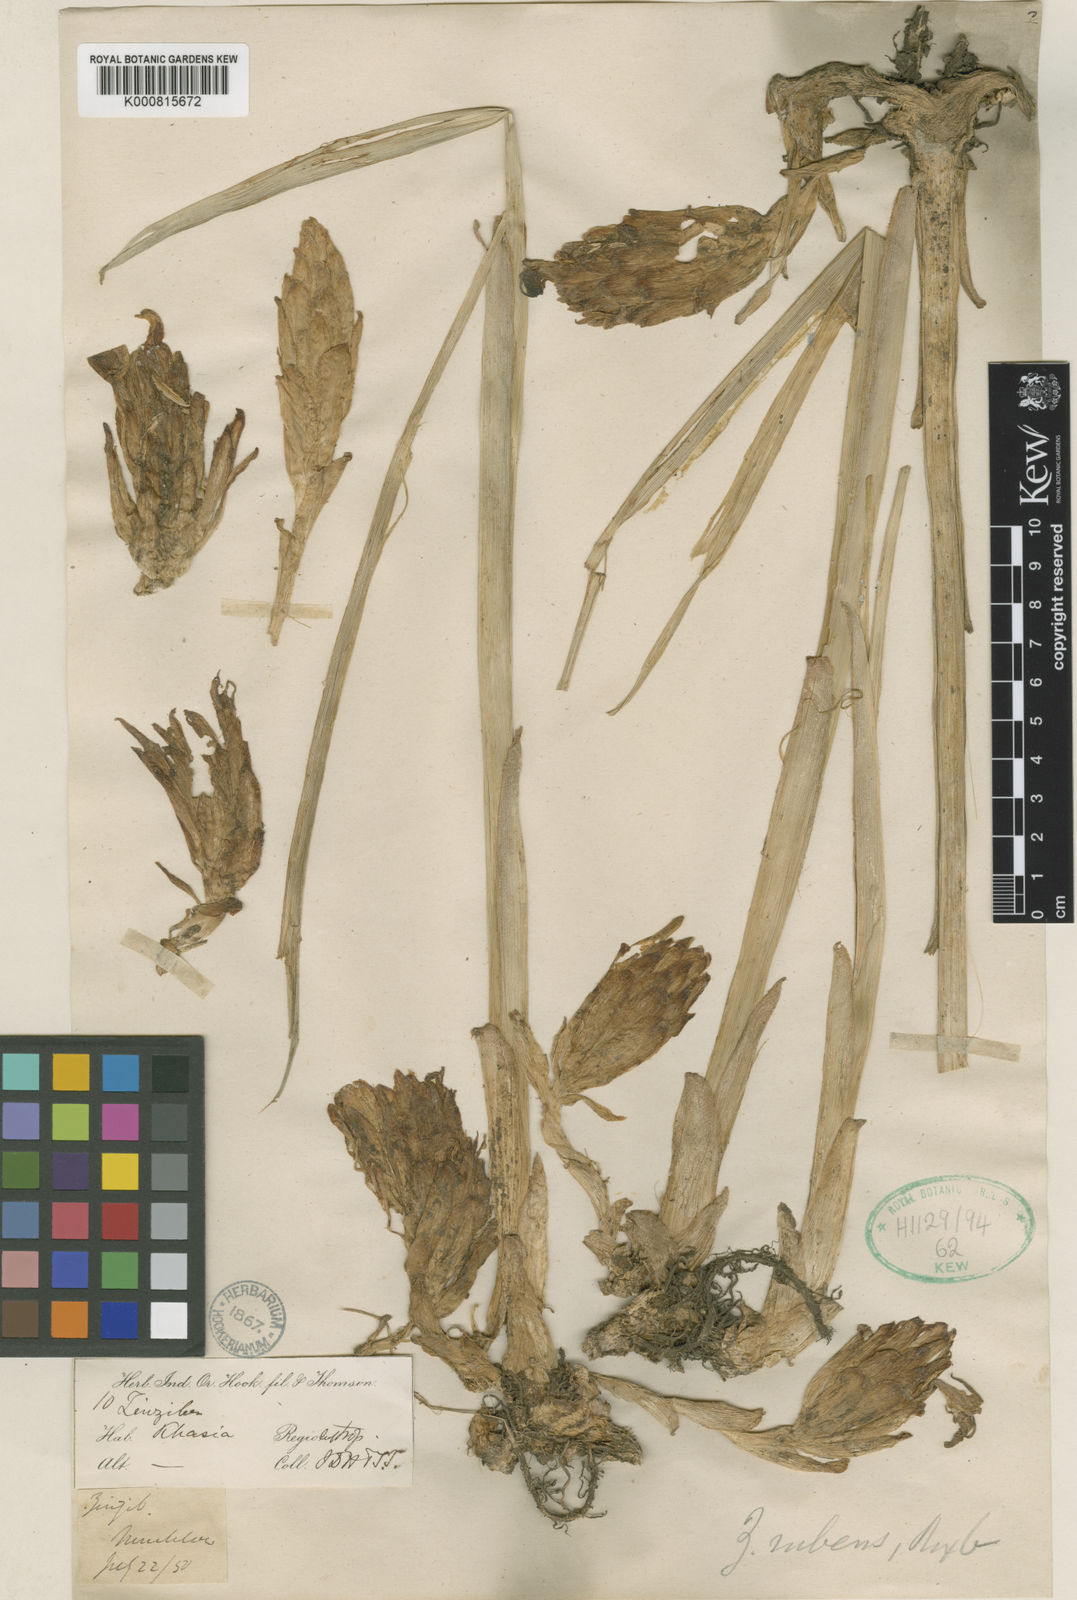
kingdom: Plantae
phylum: Tracheophyta
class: Liliopsida
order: Zingiberales
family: Zingiberaceae
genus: Zingiber
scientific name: Zingiber rubens
